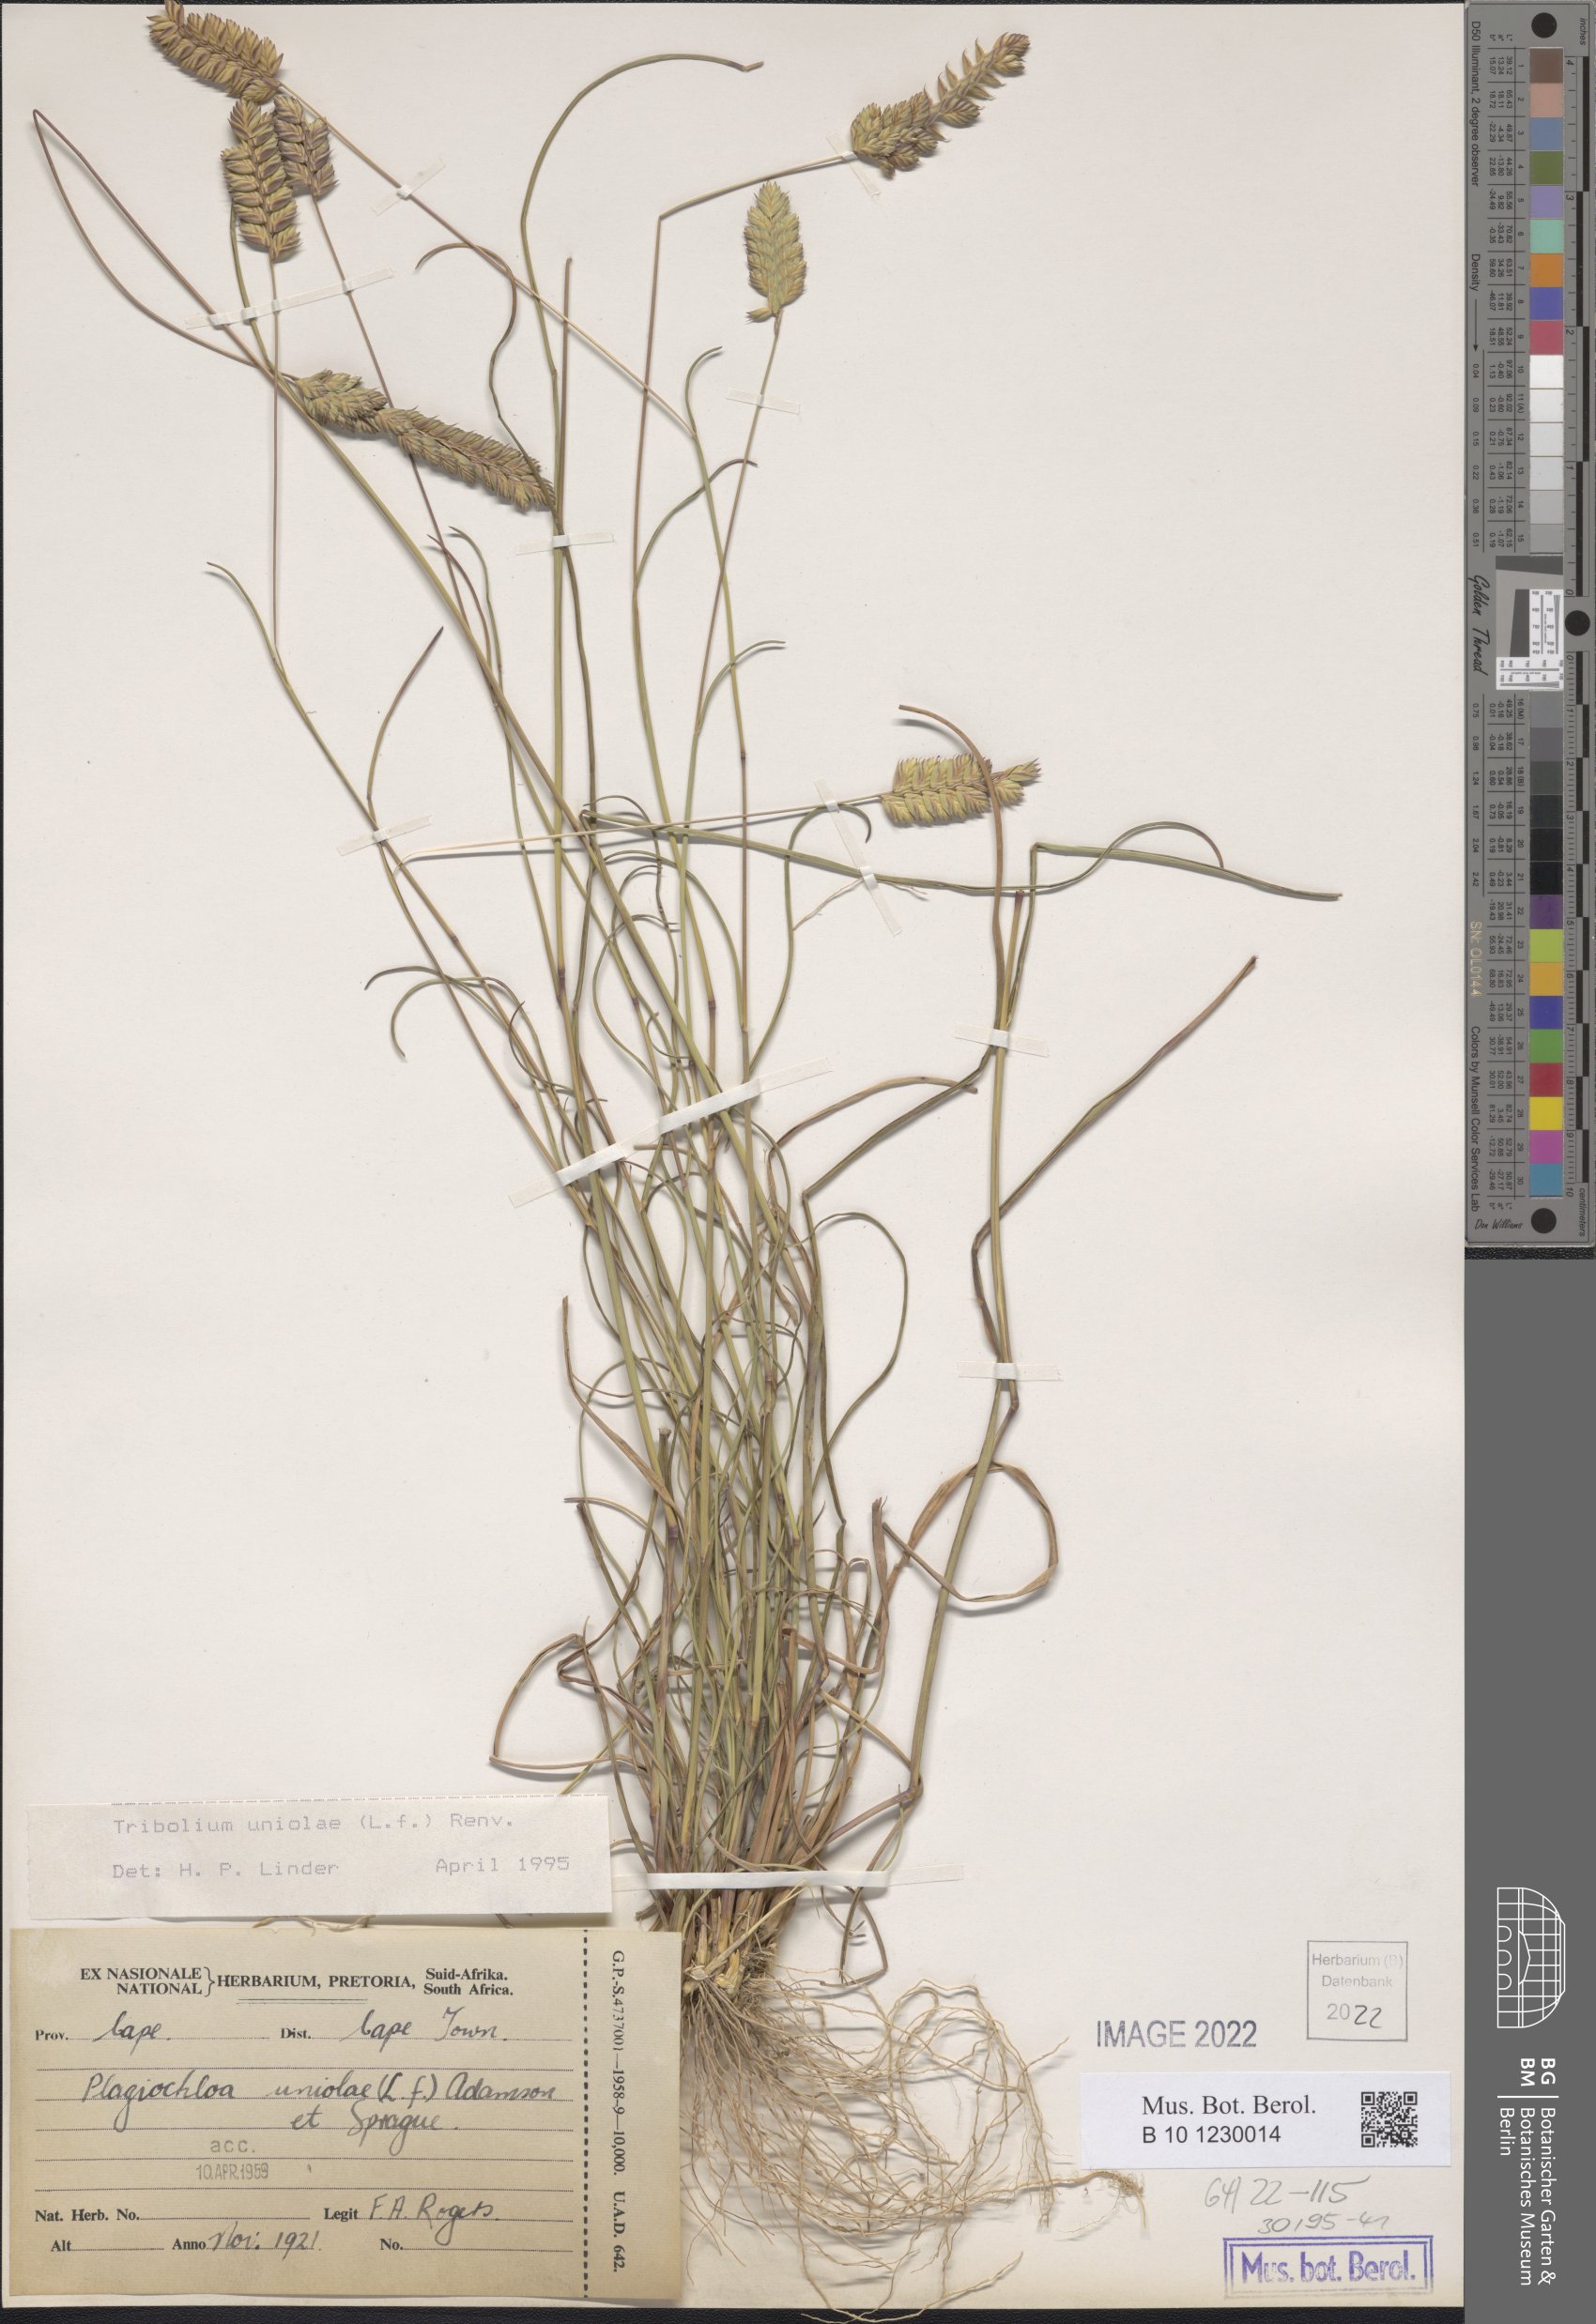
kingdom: Plantae
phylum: Tracheophyta
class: Liliopsida
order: Poales
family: Poaceae
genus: Tribolium
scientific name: Tribolium uniolae
